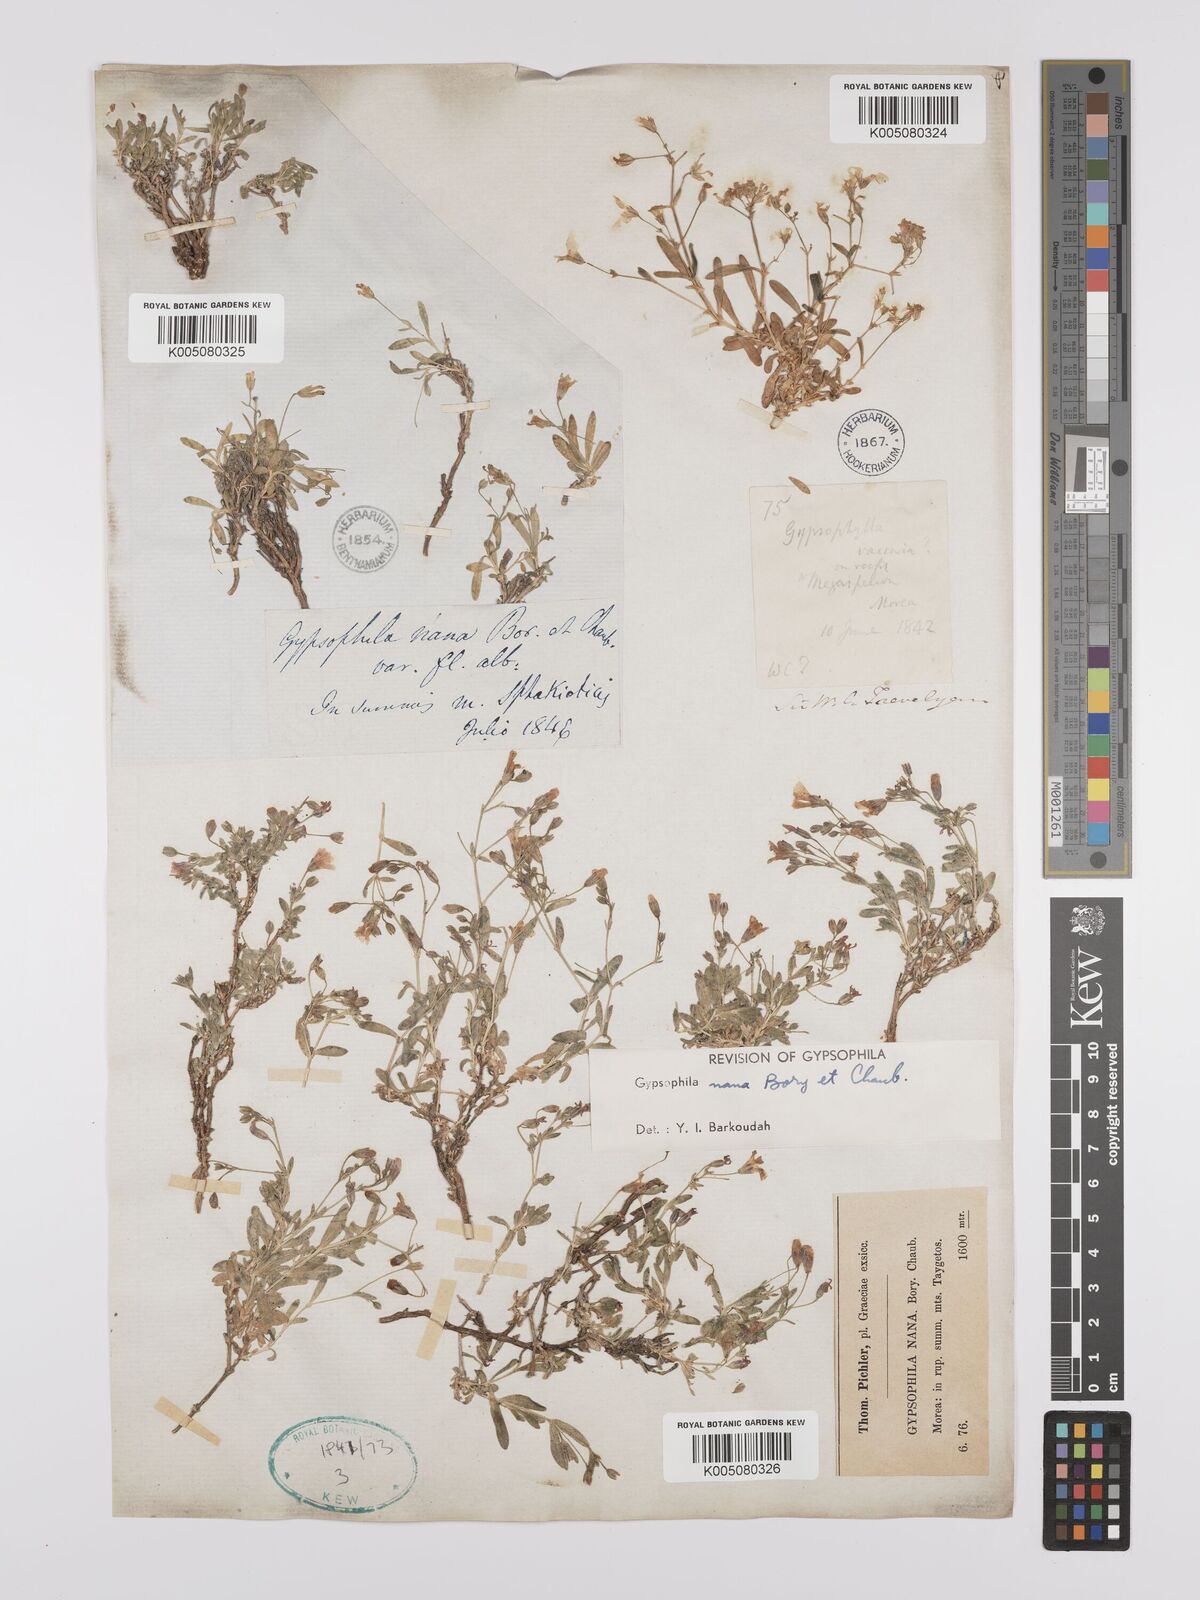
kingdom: Plantae
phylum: Tracheophyta
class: Magnoliopsida
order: Caryophyllales
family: Caryophyllaceae
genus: Gypsophila
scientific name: Gypsophila nana
